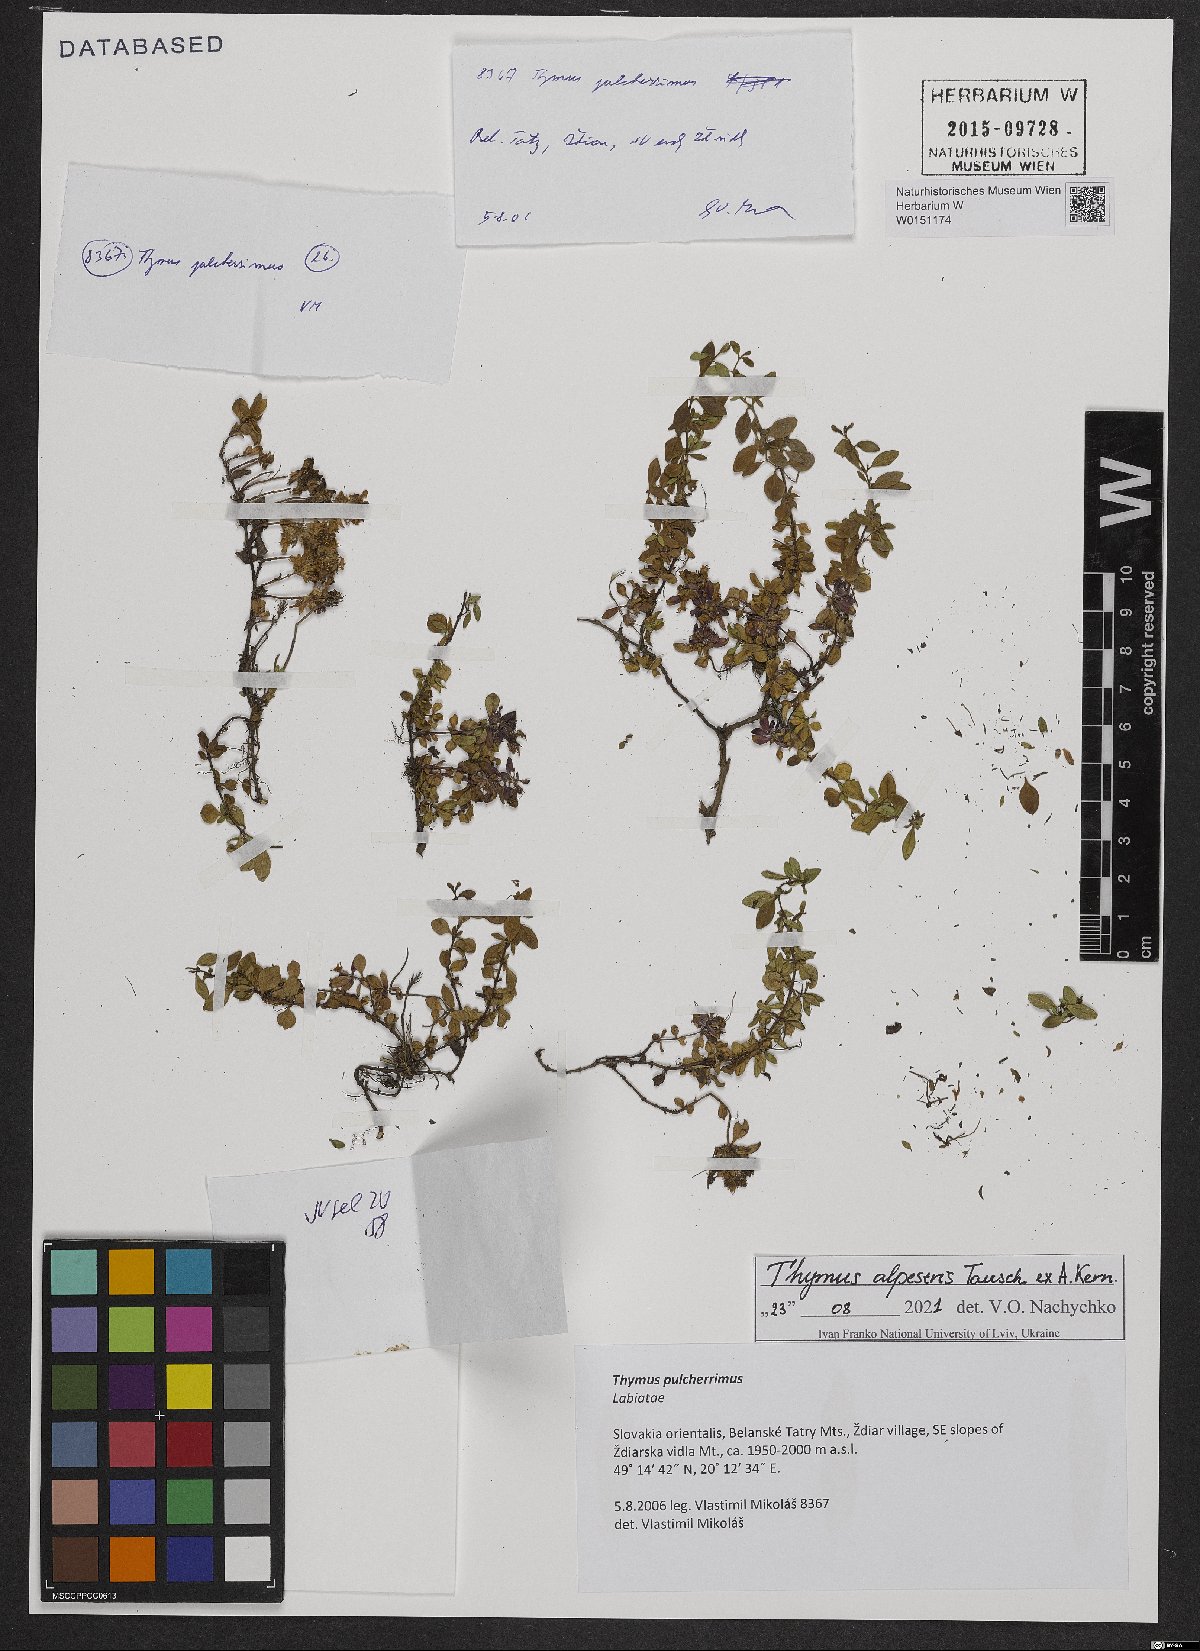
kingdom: Plantae
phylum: Tracheophyta
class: Magnoliopsida
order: Lamiales
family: Lamiaceae
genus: Thymus
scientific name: Thymus pulcherrimus
